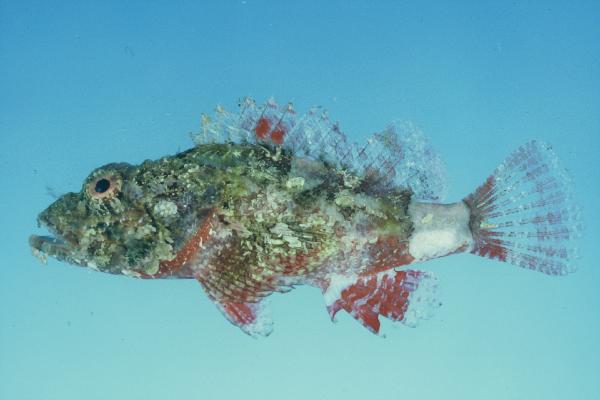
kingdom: Animalia
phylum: Chordata
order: Scorpaeniformes
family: Scorpaenidae
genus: Scorpaenopsis
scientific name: Scorpaenopsis vittapinna
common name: Bandfin scorpionfish
